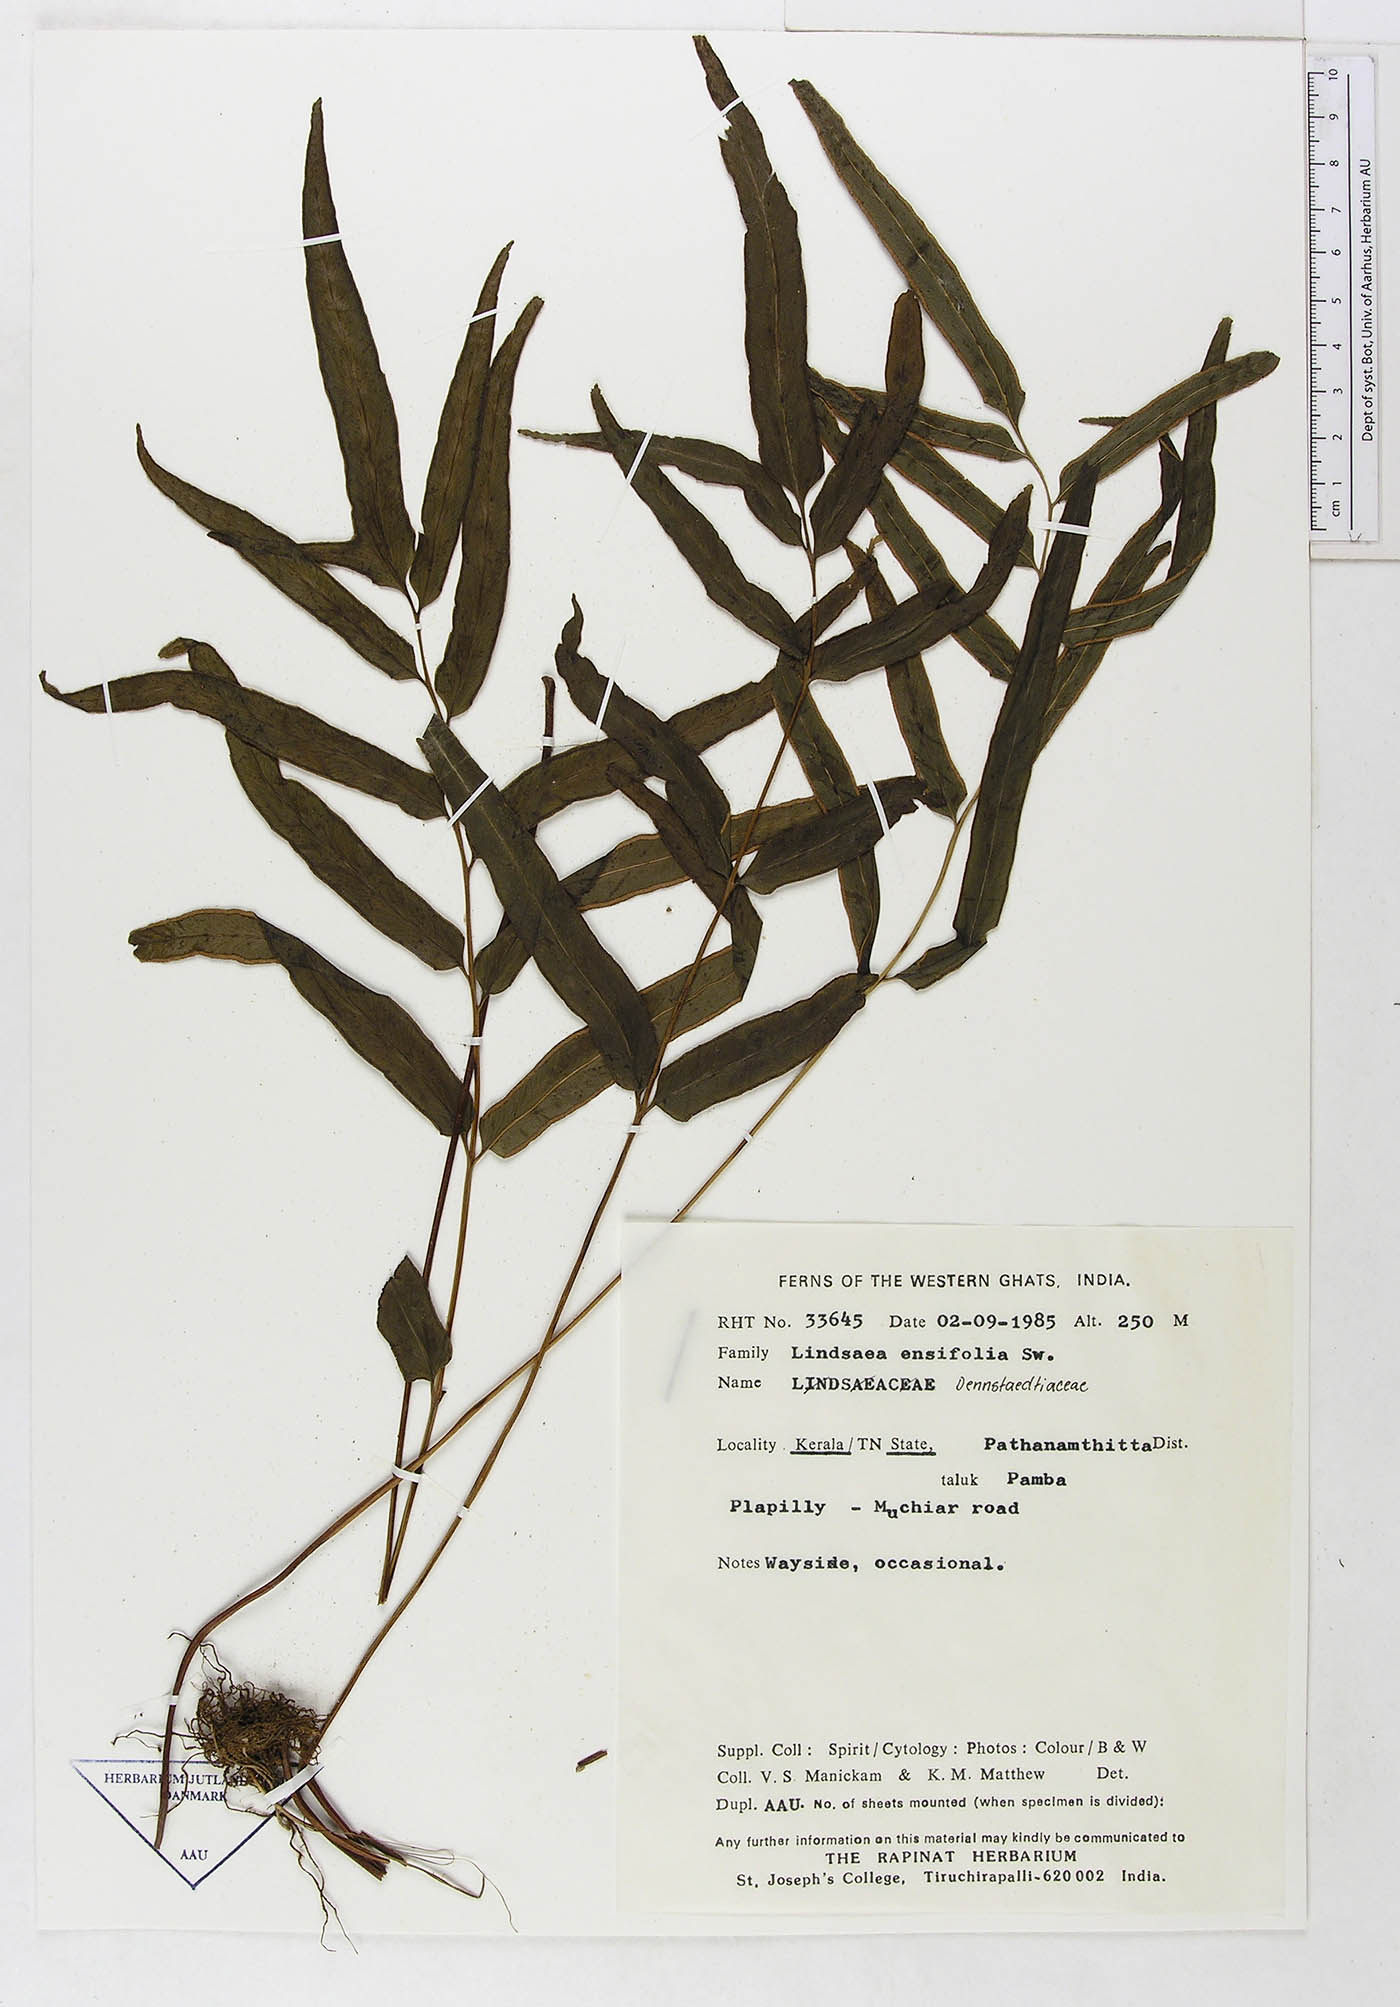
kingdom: Plantae
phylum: Tracheophyta
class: Polypodiopsida
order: Polypodiales
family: Lindsaeaceae
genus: Lindsaea
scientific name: Lindsaea ensifolia
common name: Graceful necklace fern
